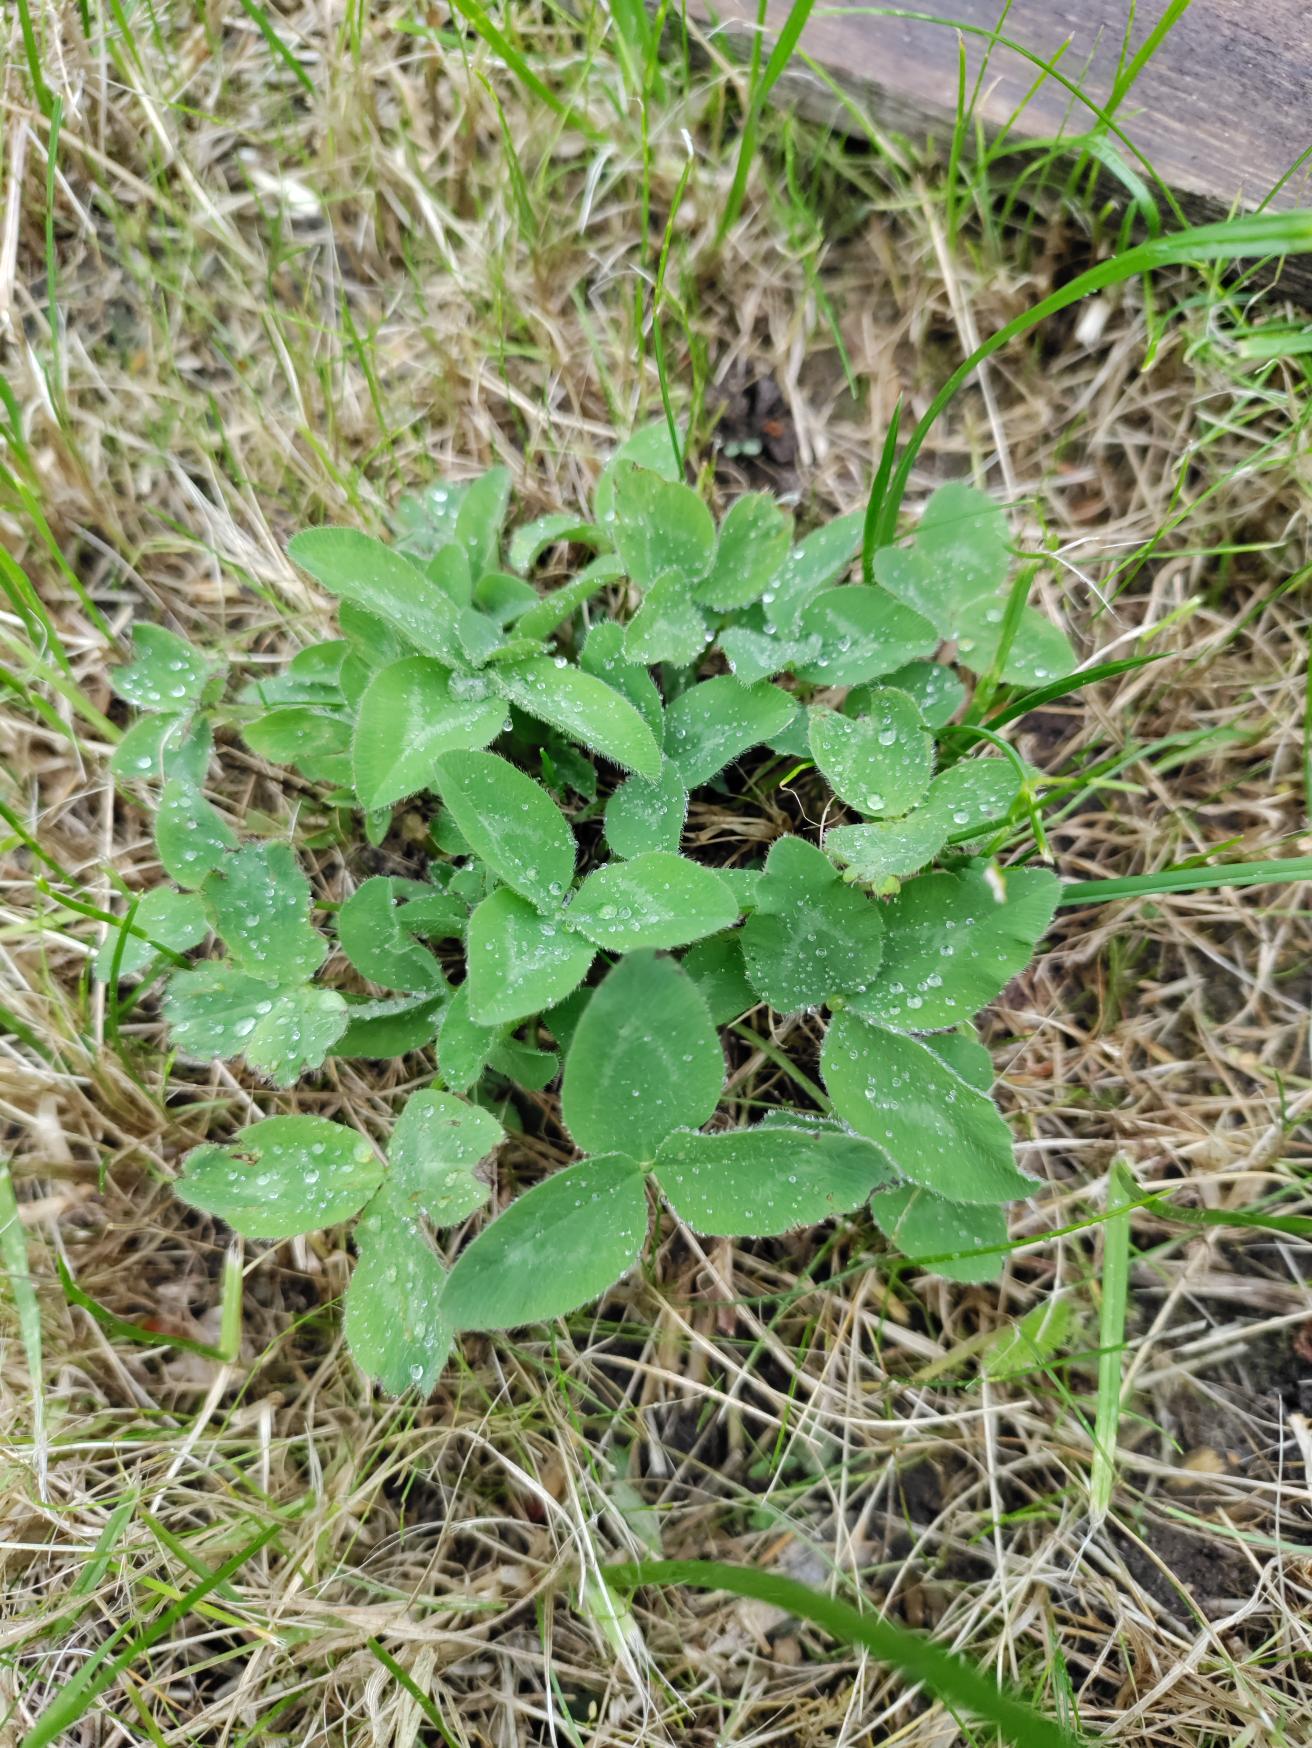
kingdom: Plantae
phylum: Tracheophyta
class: Magnoliopsida
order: Fabales
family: Fabaceae
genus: Trifolium
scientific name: Trifolium pratense
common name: Rød-kløver
